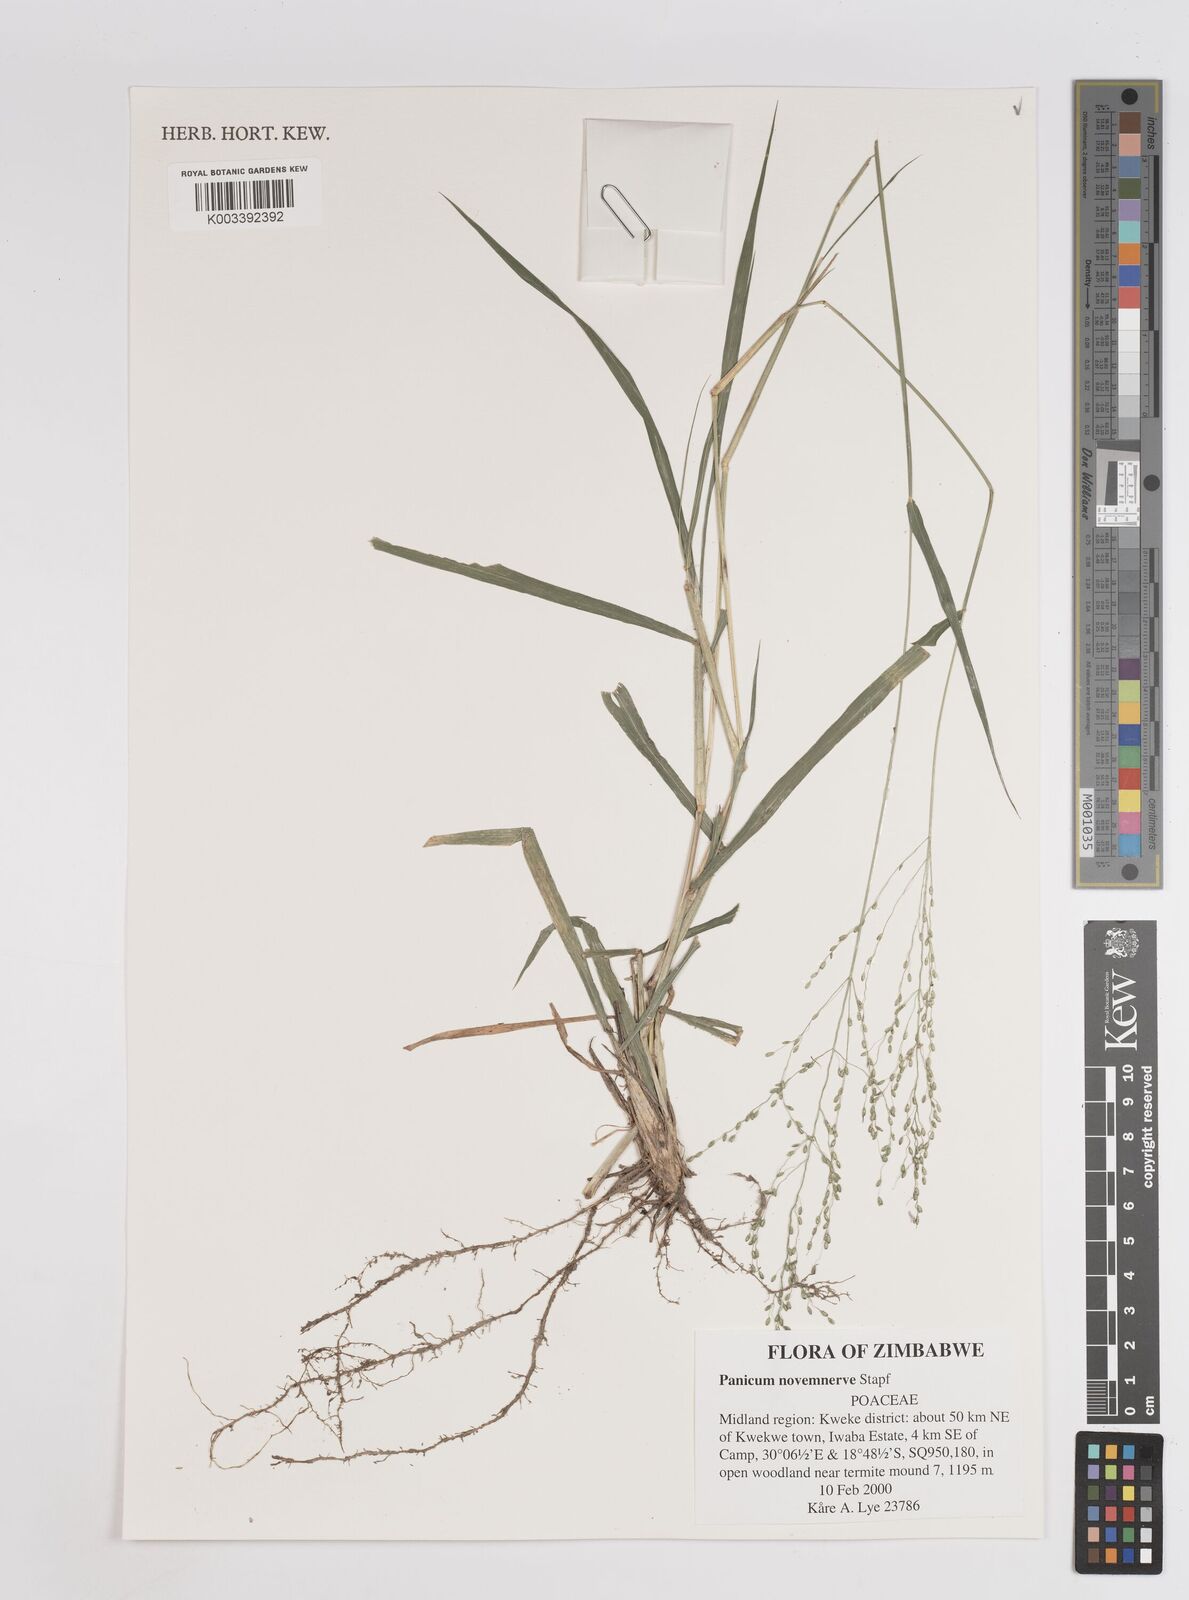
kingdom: Plantae
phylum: Tracheophyta
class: Liliopsida
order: Poales
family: Poaceae
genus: Panicum
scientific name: Panicum novemnerve
